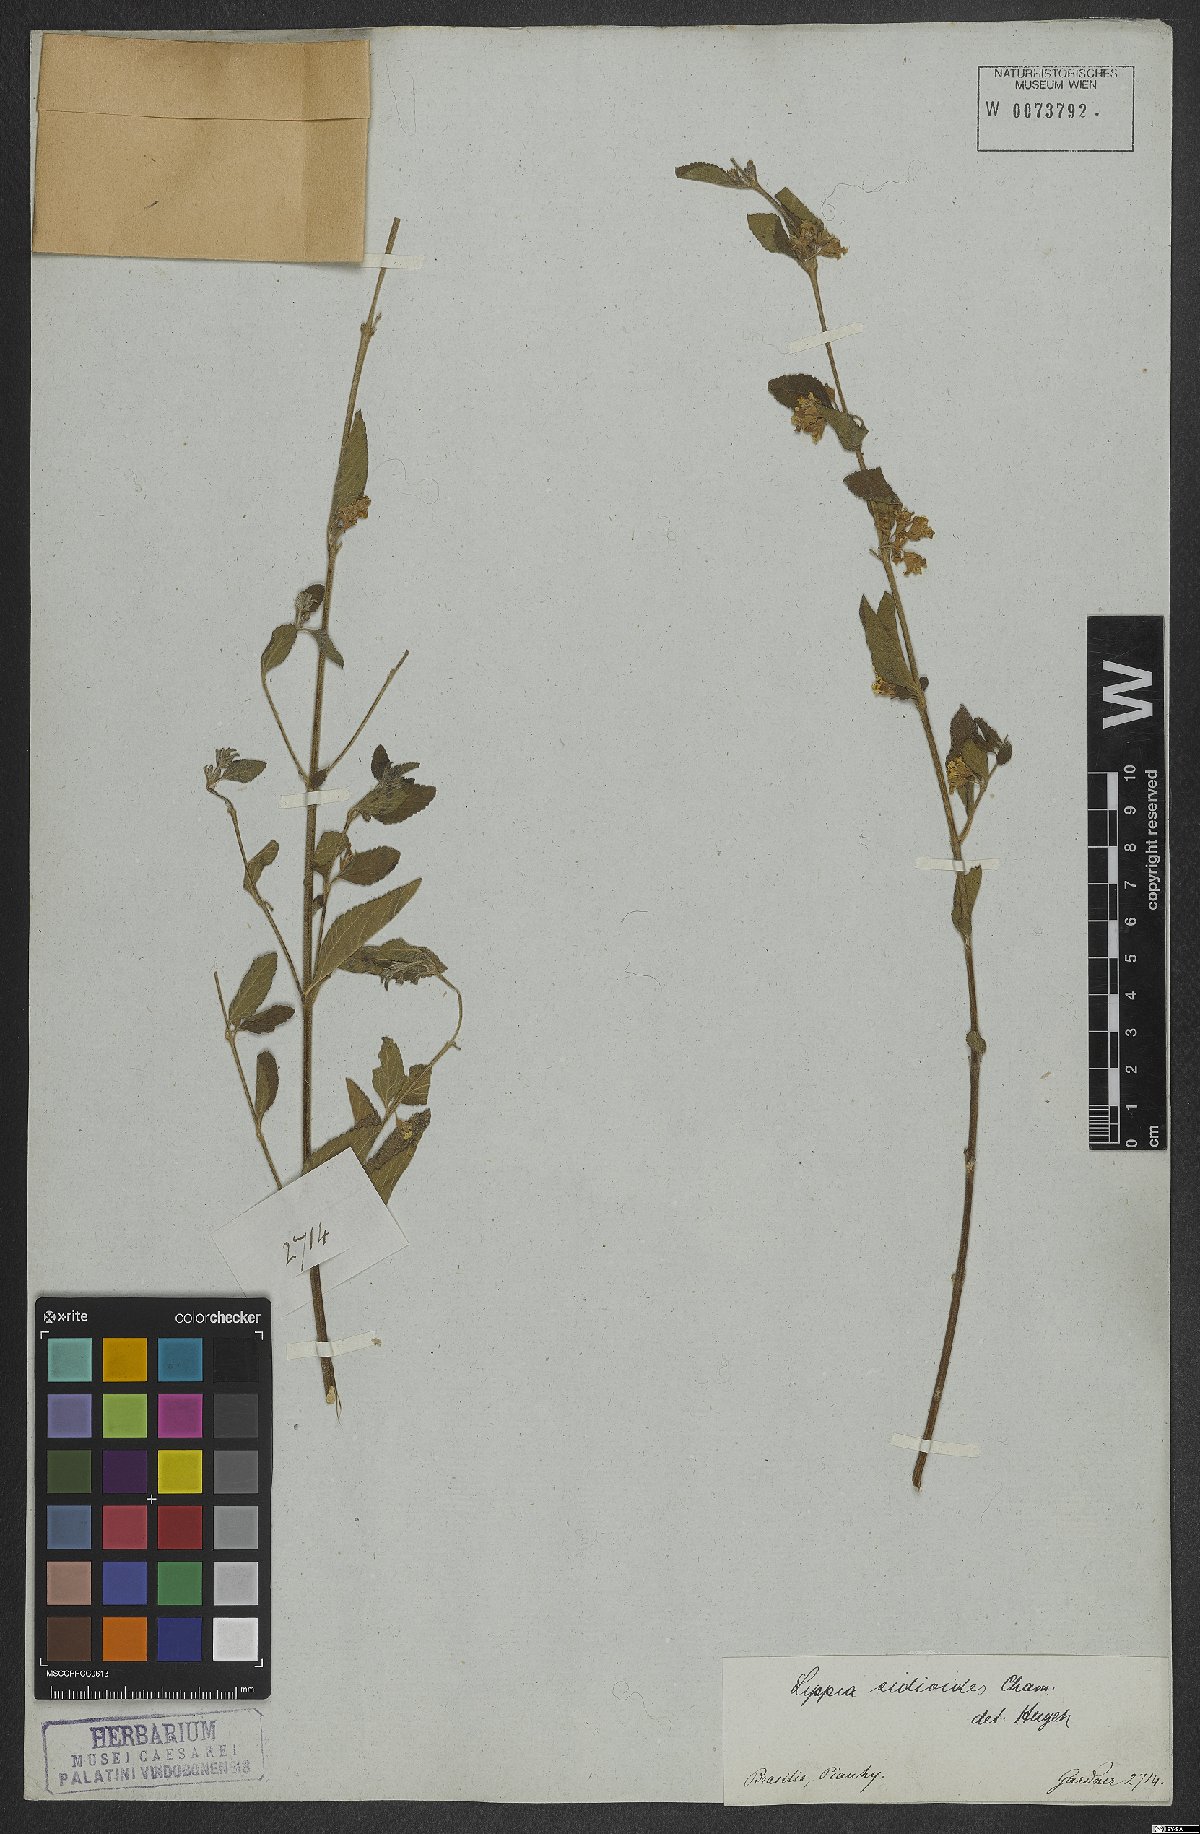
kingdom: Plantae
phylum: Tracheophyta
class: Magnoliopsida
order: Lamiales
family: Verbenaceae
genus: Lippia
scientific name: Lippia origanoides
